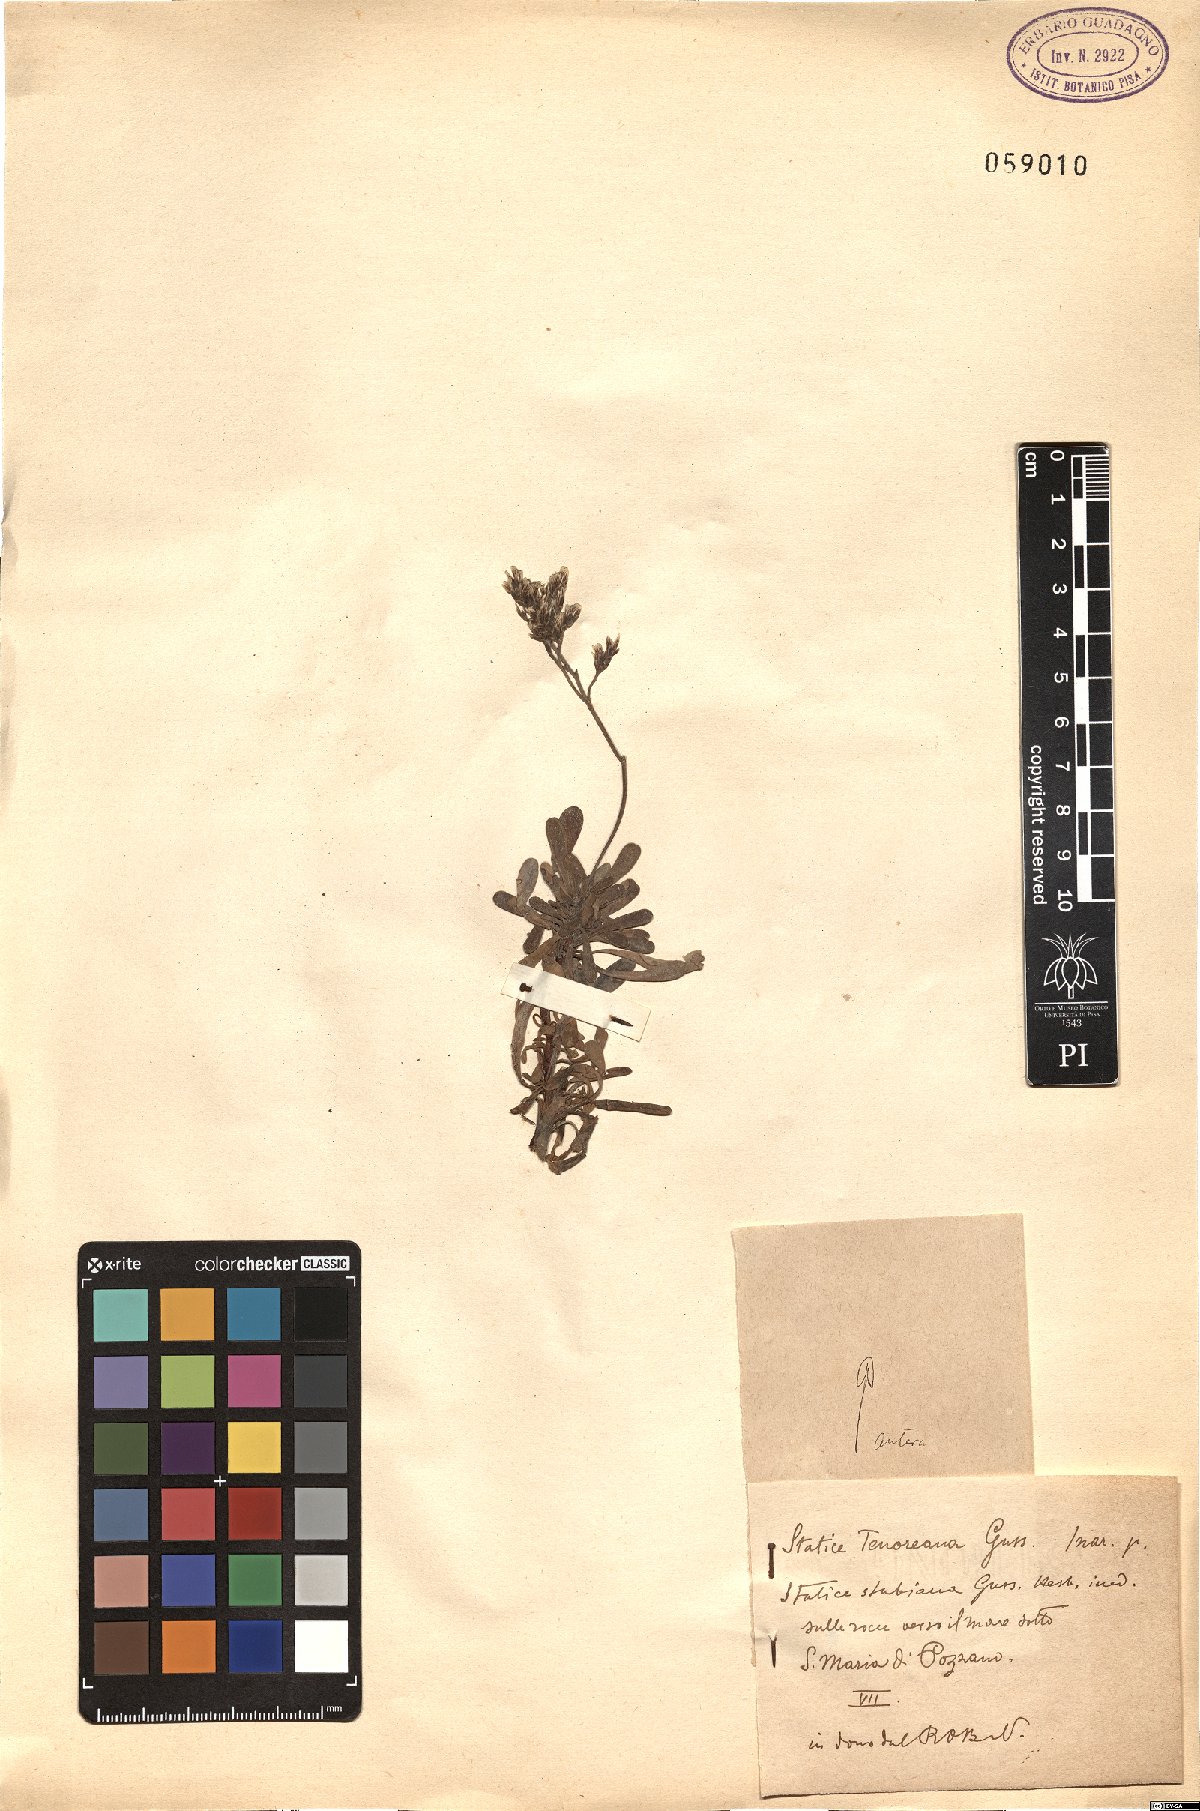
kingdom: Plantae
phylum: Tracheophyta
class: Magnoliopsida
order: Caryophyllales
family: Plumbaginaceae
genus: Limonium
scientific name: Limonium tenoreanum
